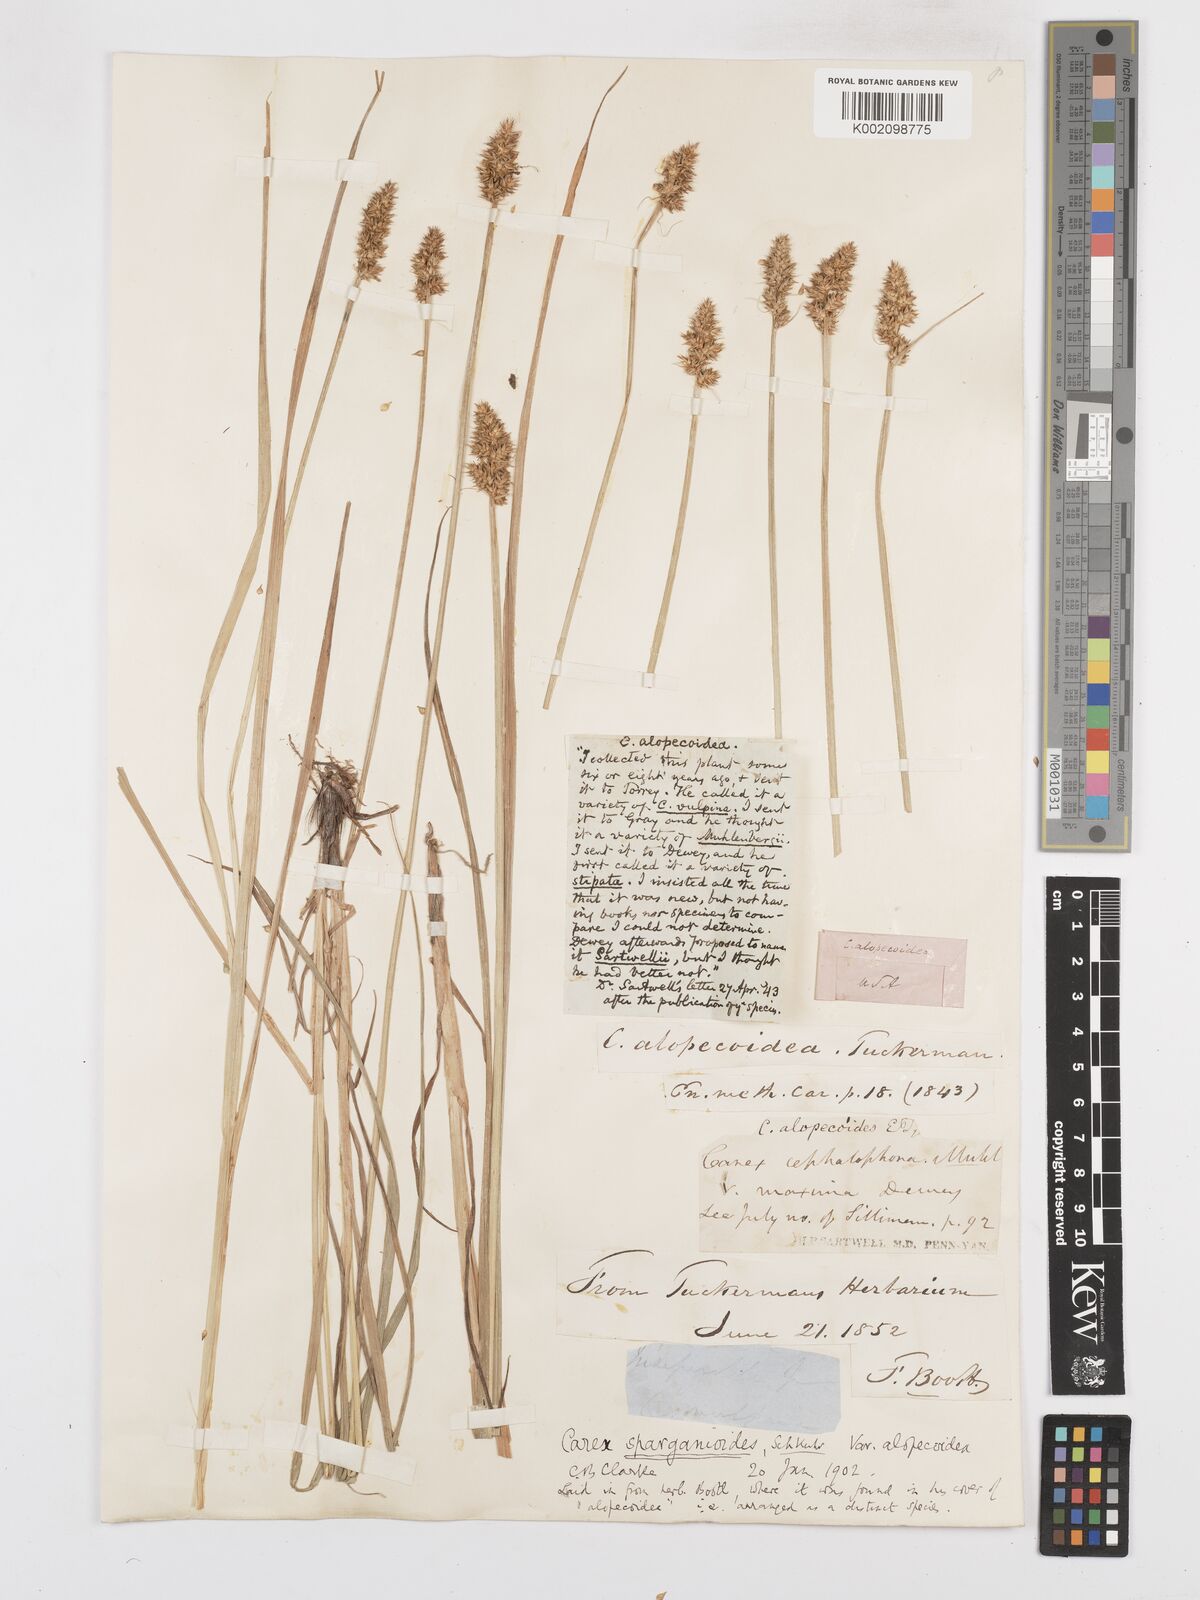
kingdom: Plantae
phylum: Tracheophyta
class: Liliopsida
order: Poales
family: Cyperaceae
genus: Carex
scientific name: Carex sparganioides
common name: Burreed sedge
